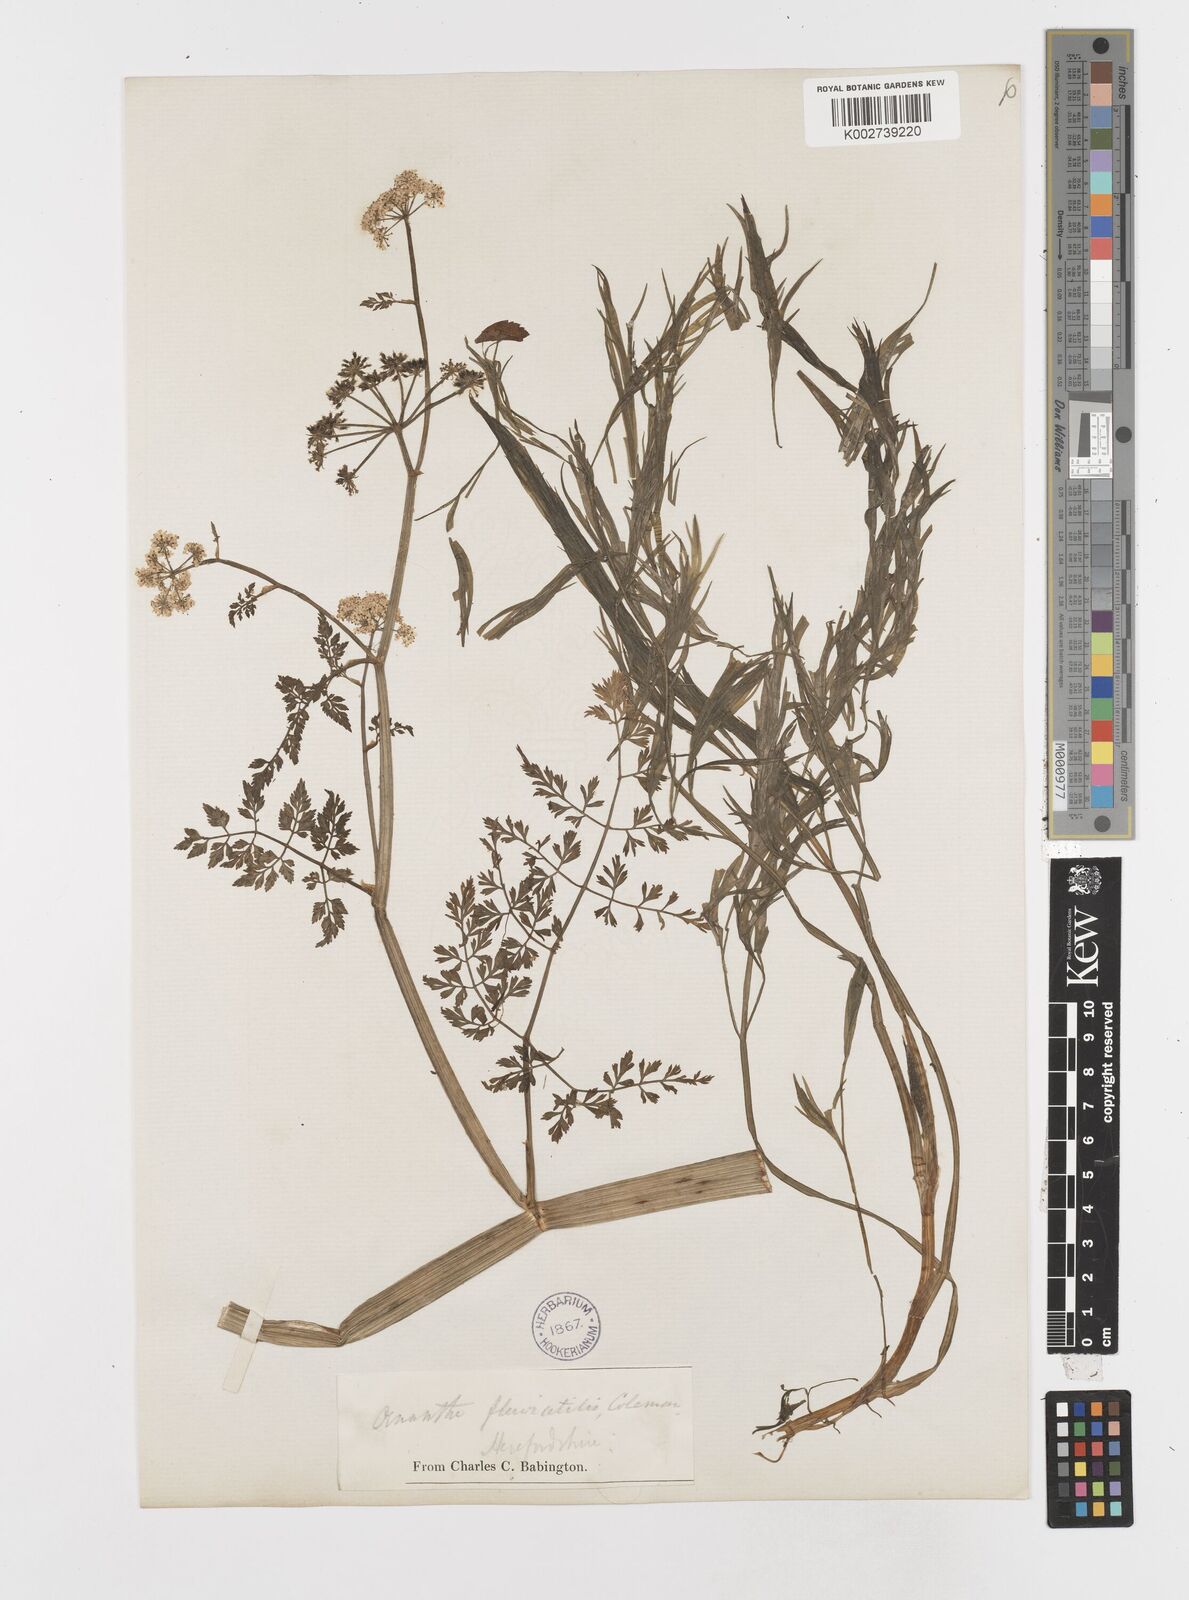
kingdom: Plantae
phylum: Tracheophyta
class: Magnoliopsida
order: Apiales
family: Apiaceae
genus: Oenanthe
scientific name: Oenanthe fluviatilis
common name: River water-dropwort
